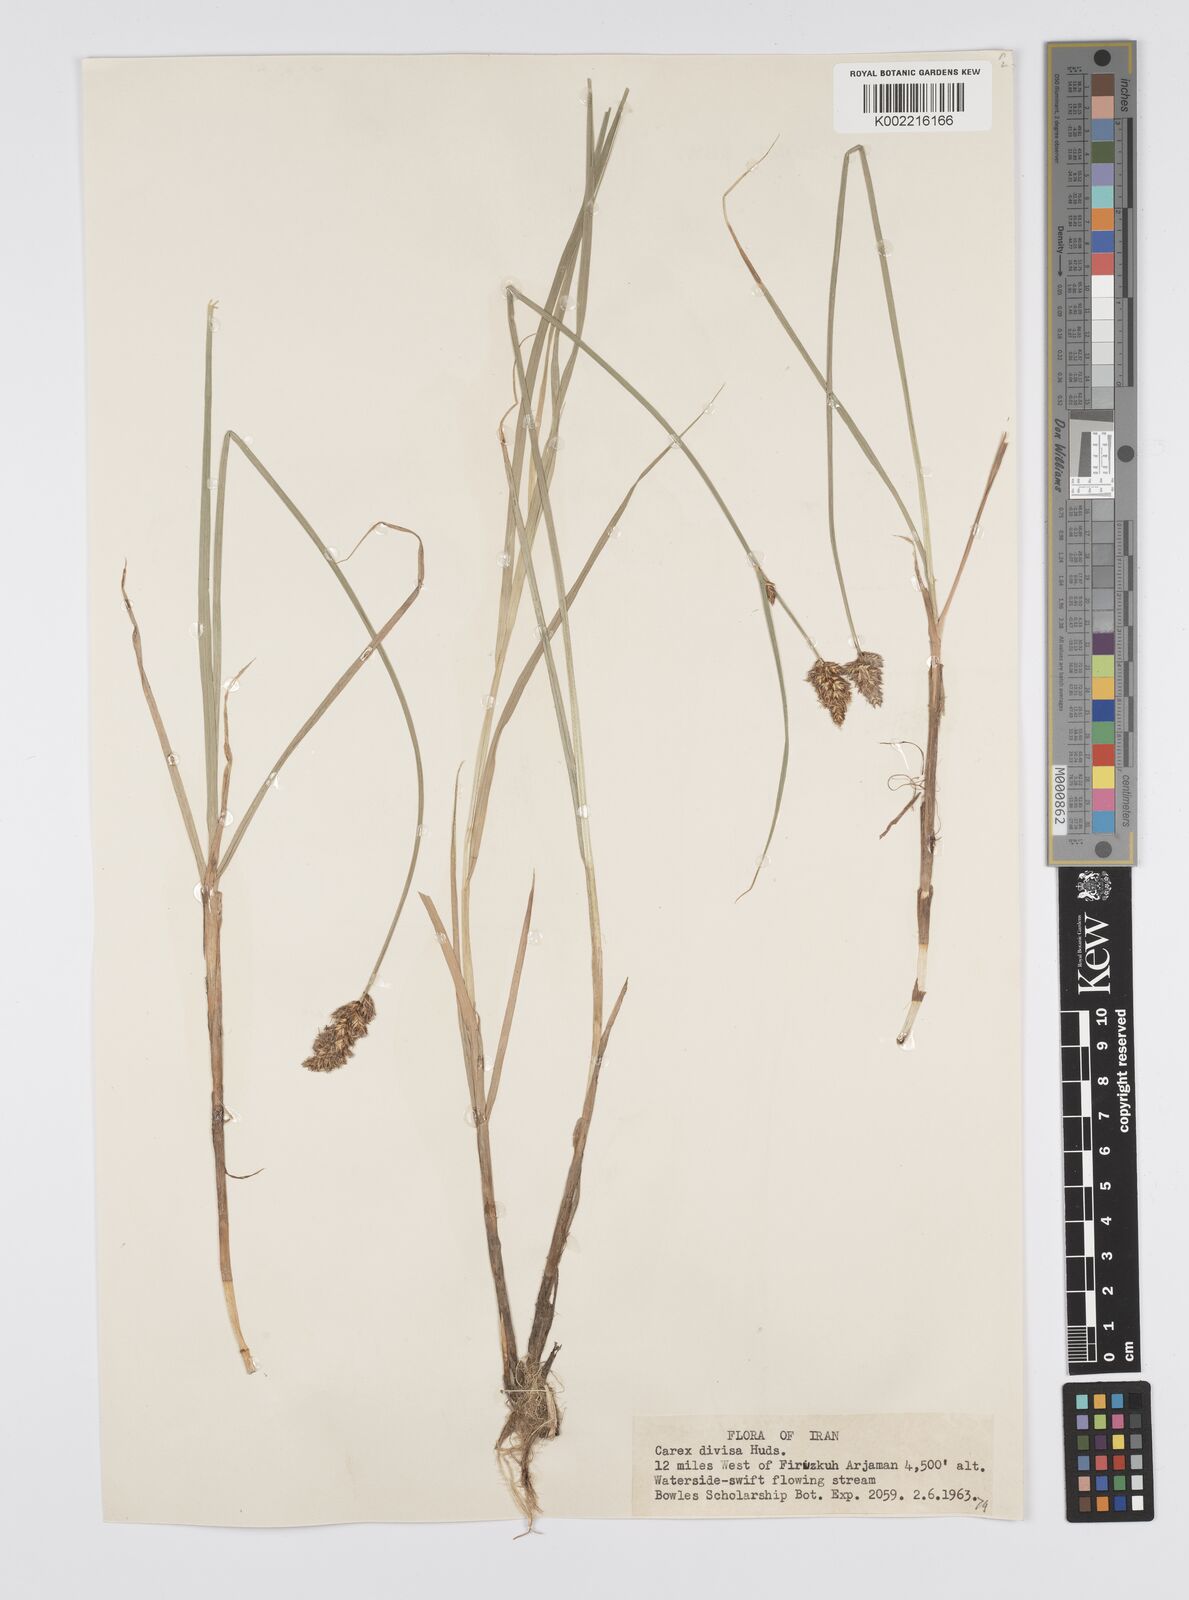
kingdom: Plantae
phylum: Tracheophyta
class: Liliopsida
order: Poales
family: Cyperaceae
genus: Carex
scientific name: Carex divisa
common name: Divided sedge
